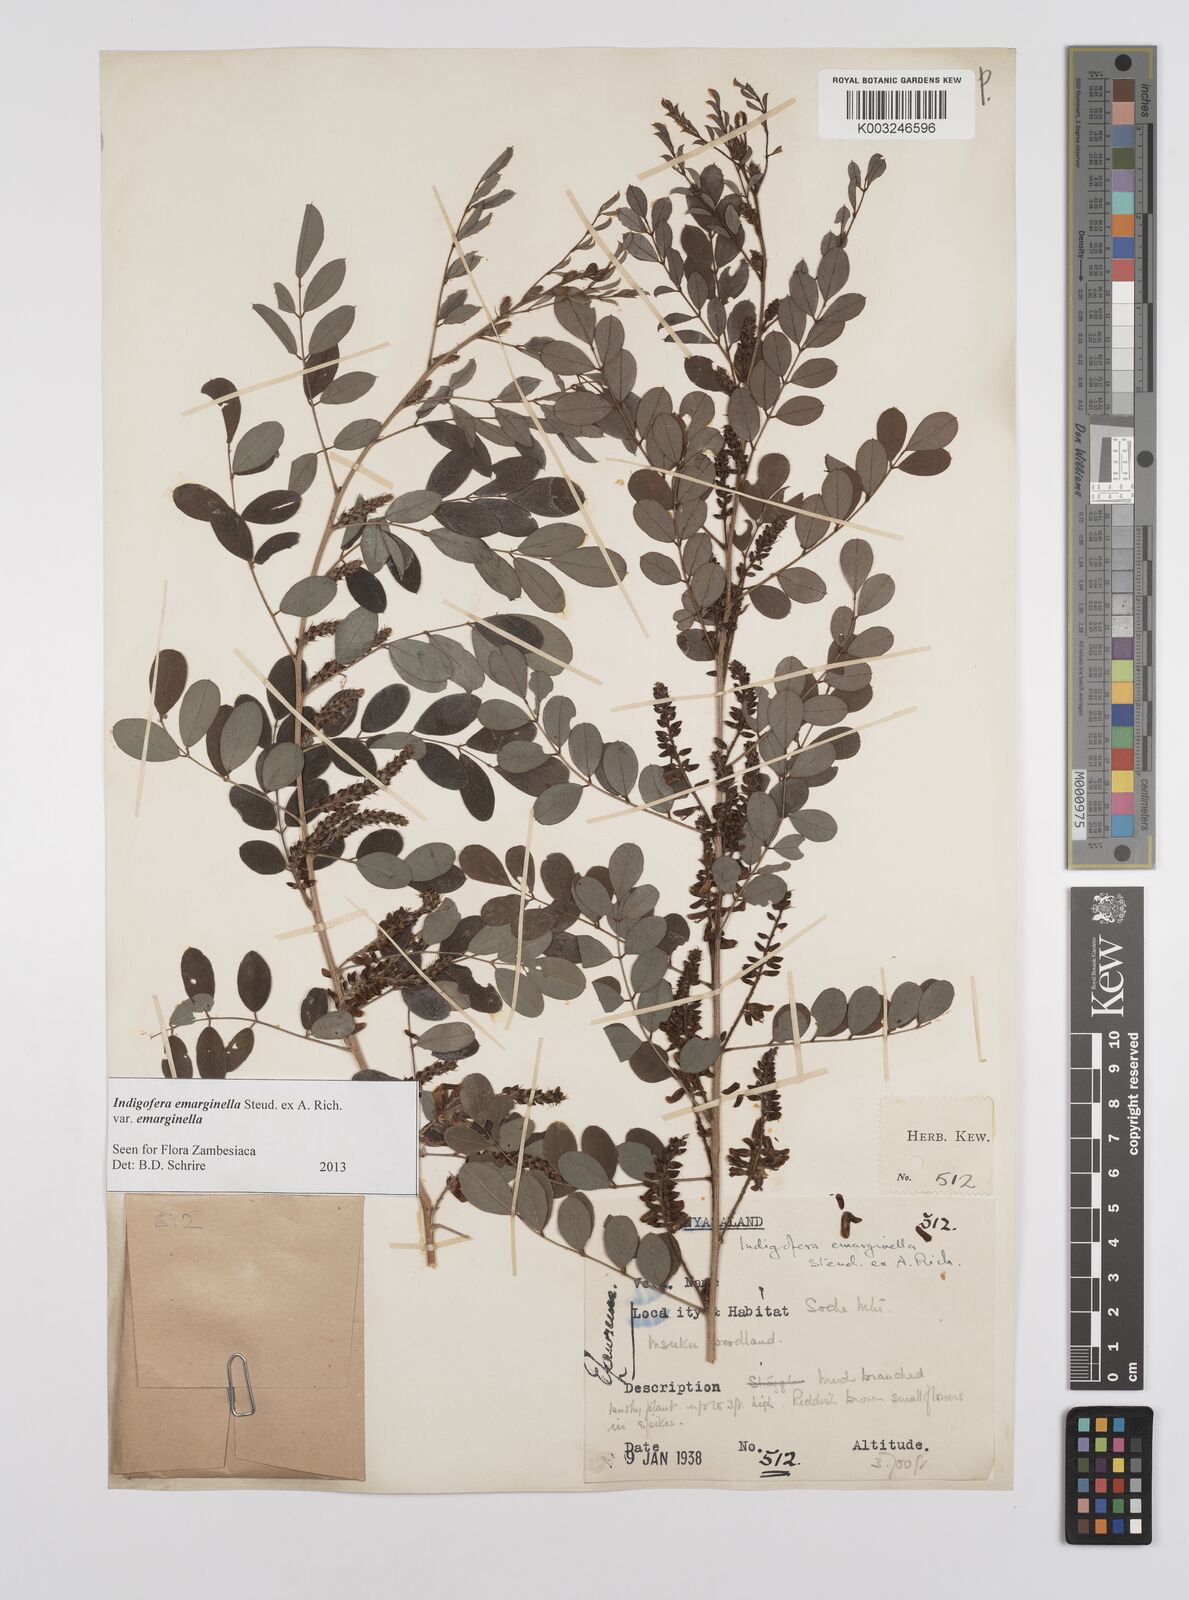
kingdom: Plantae
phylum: Tracheophyta
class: Magnoliopsida
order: Fabales
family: Fabaceae
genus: Indigofera
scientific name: Indigofera emarginella
